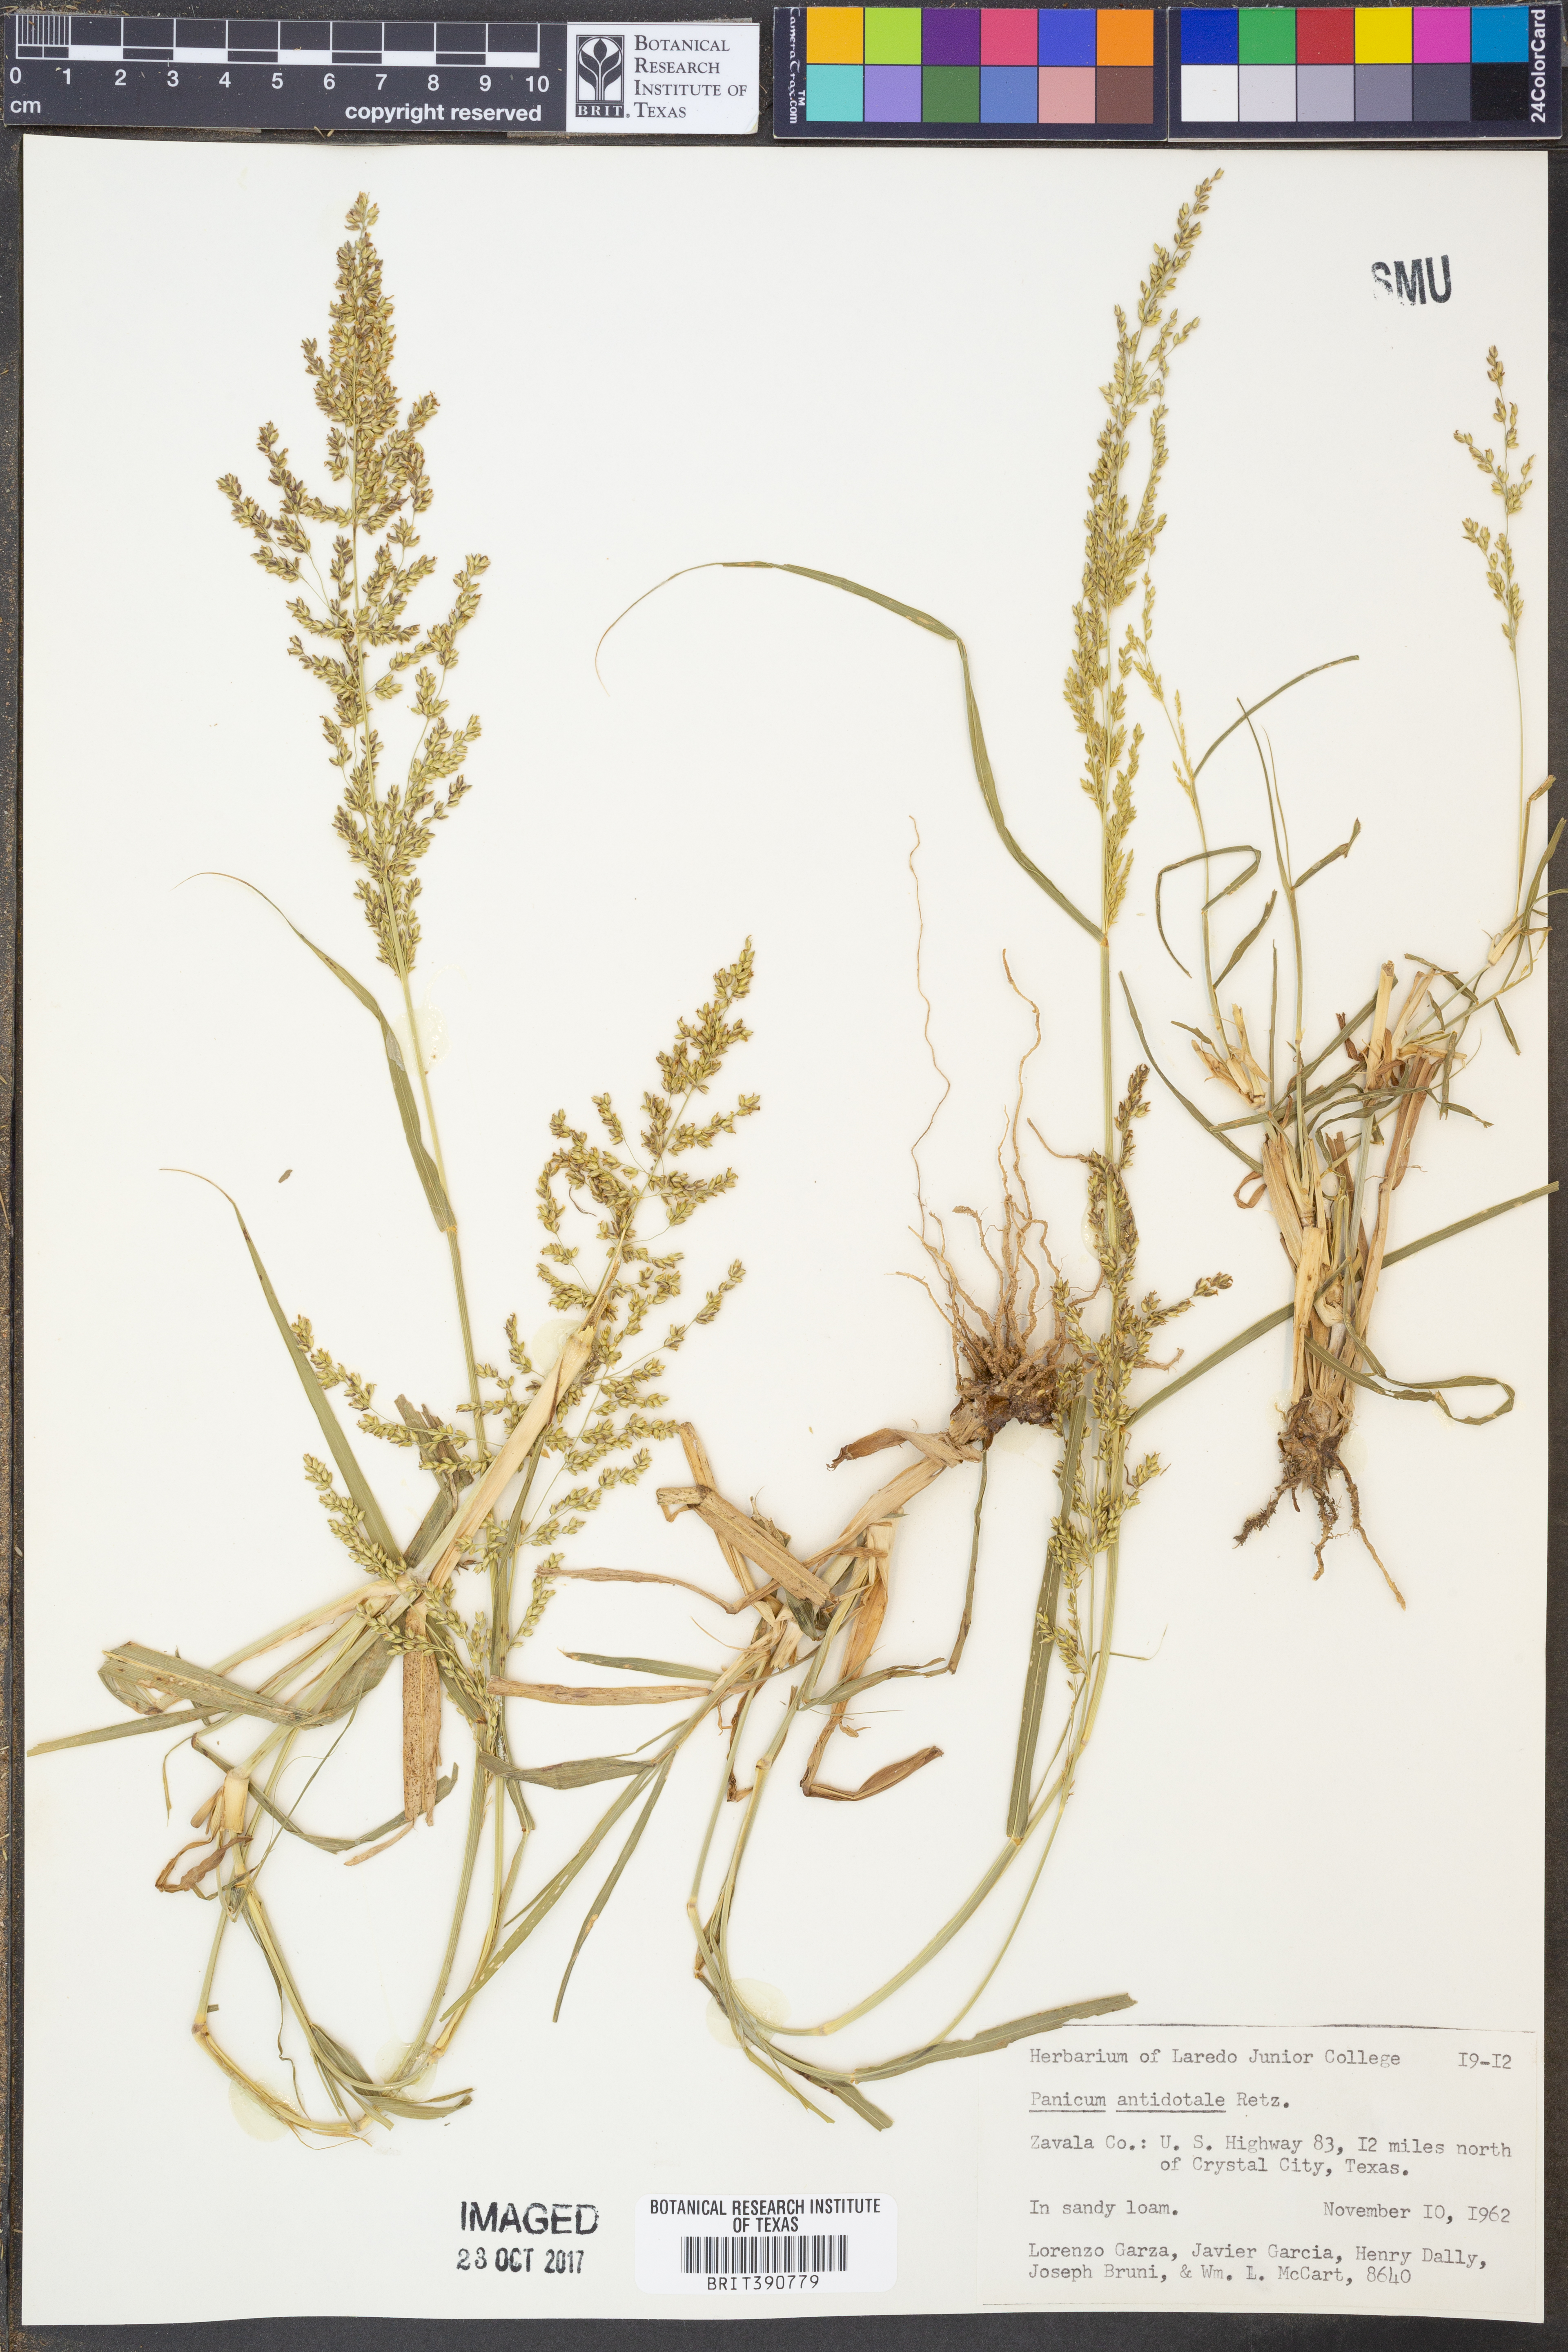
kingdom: Plantae
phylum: Tracheophyta
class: Liliopsida
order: Poales
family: Poaceae
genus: Panicum
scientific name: Panicum antidotale
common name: Blue panicum
